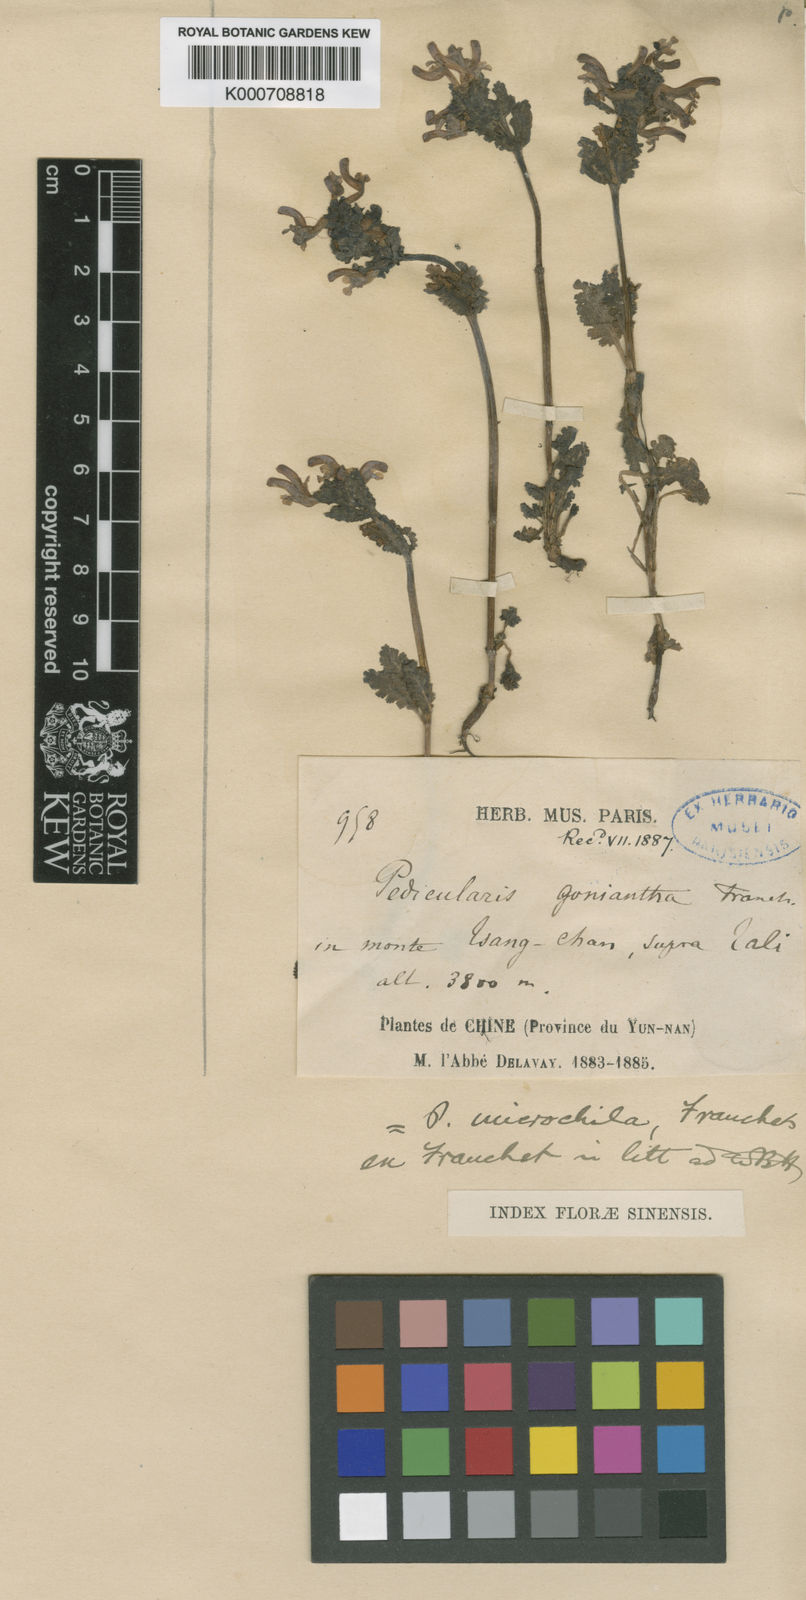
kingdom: Plantae
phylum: Tracheophyta
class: Magnoliopsida
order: Lamiales
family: Orobanchaceae
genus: Pedicularis
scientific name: Pedicularis microchila
